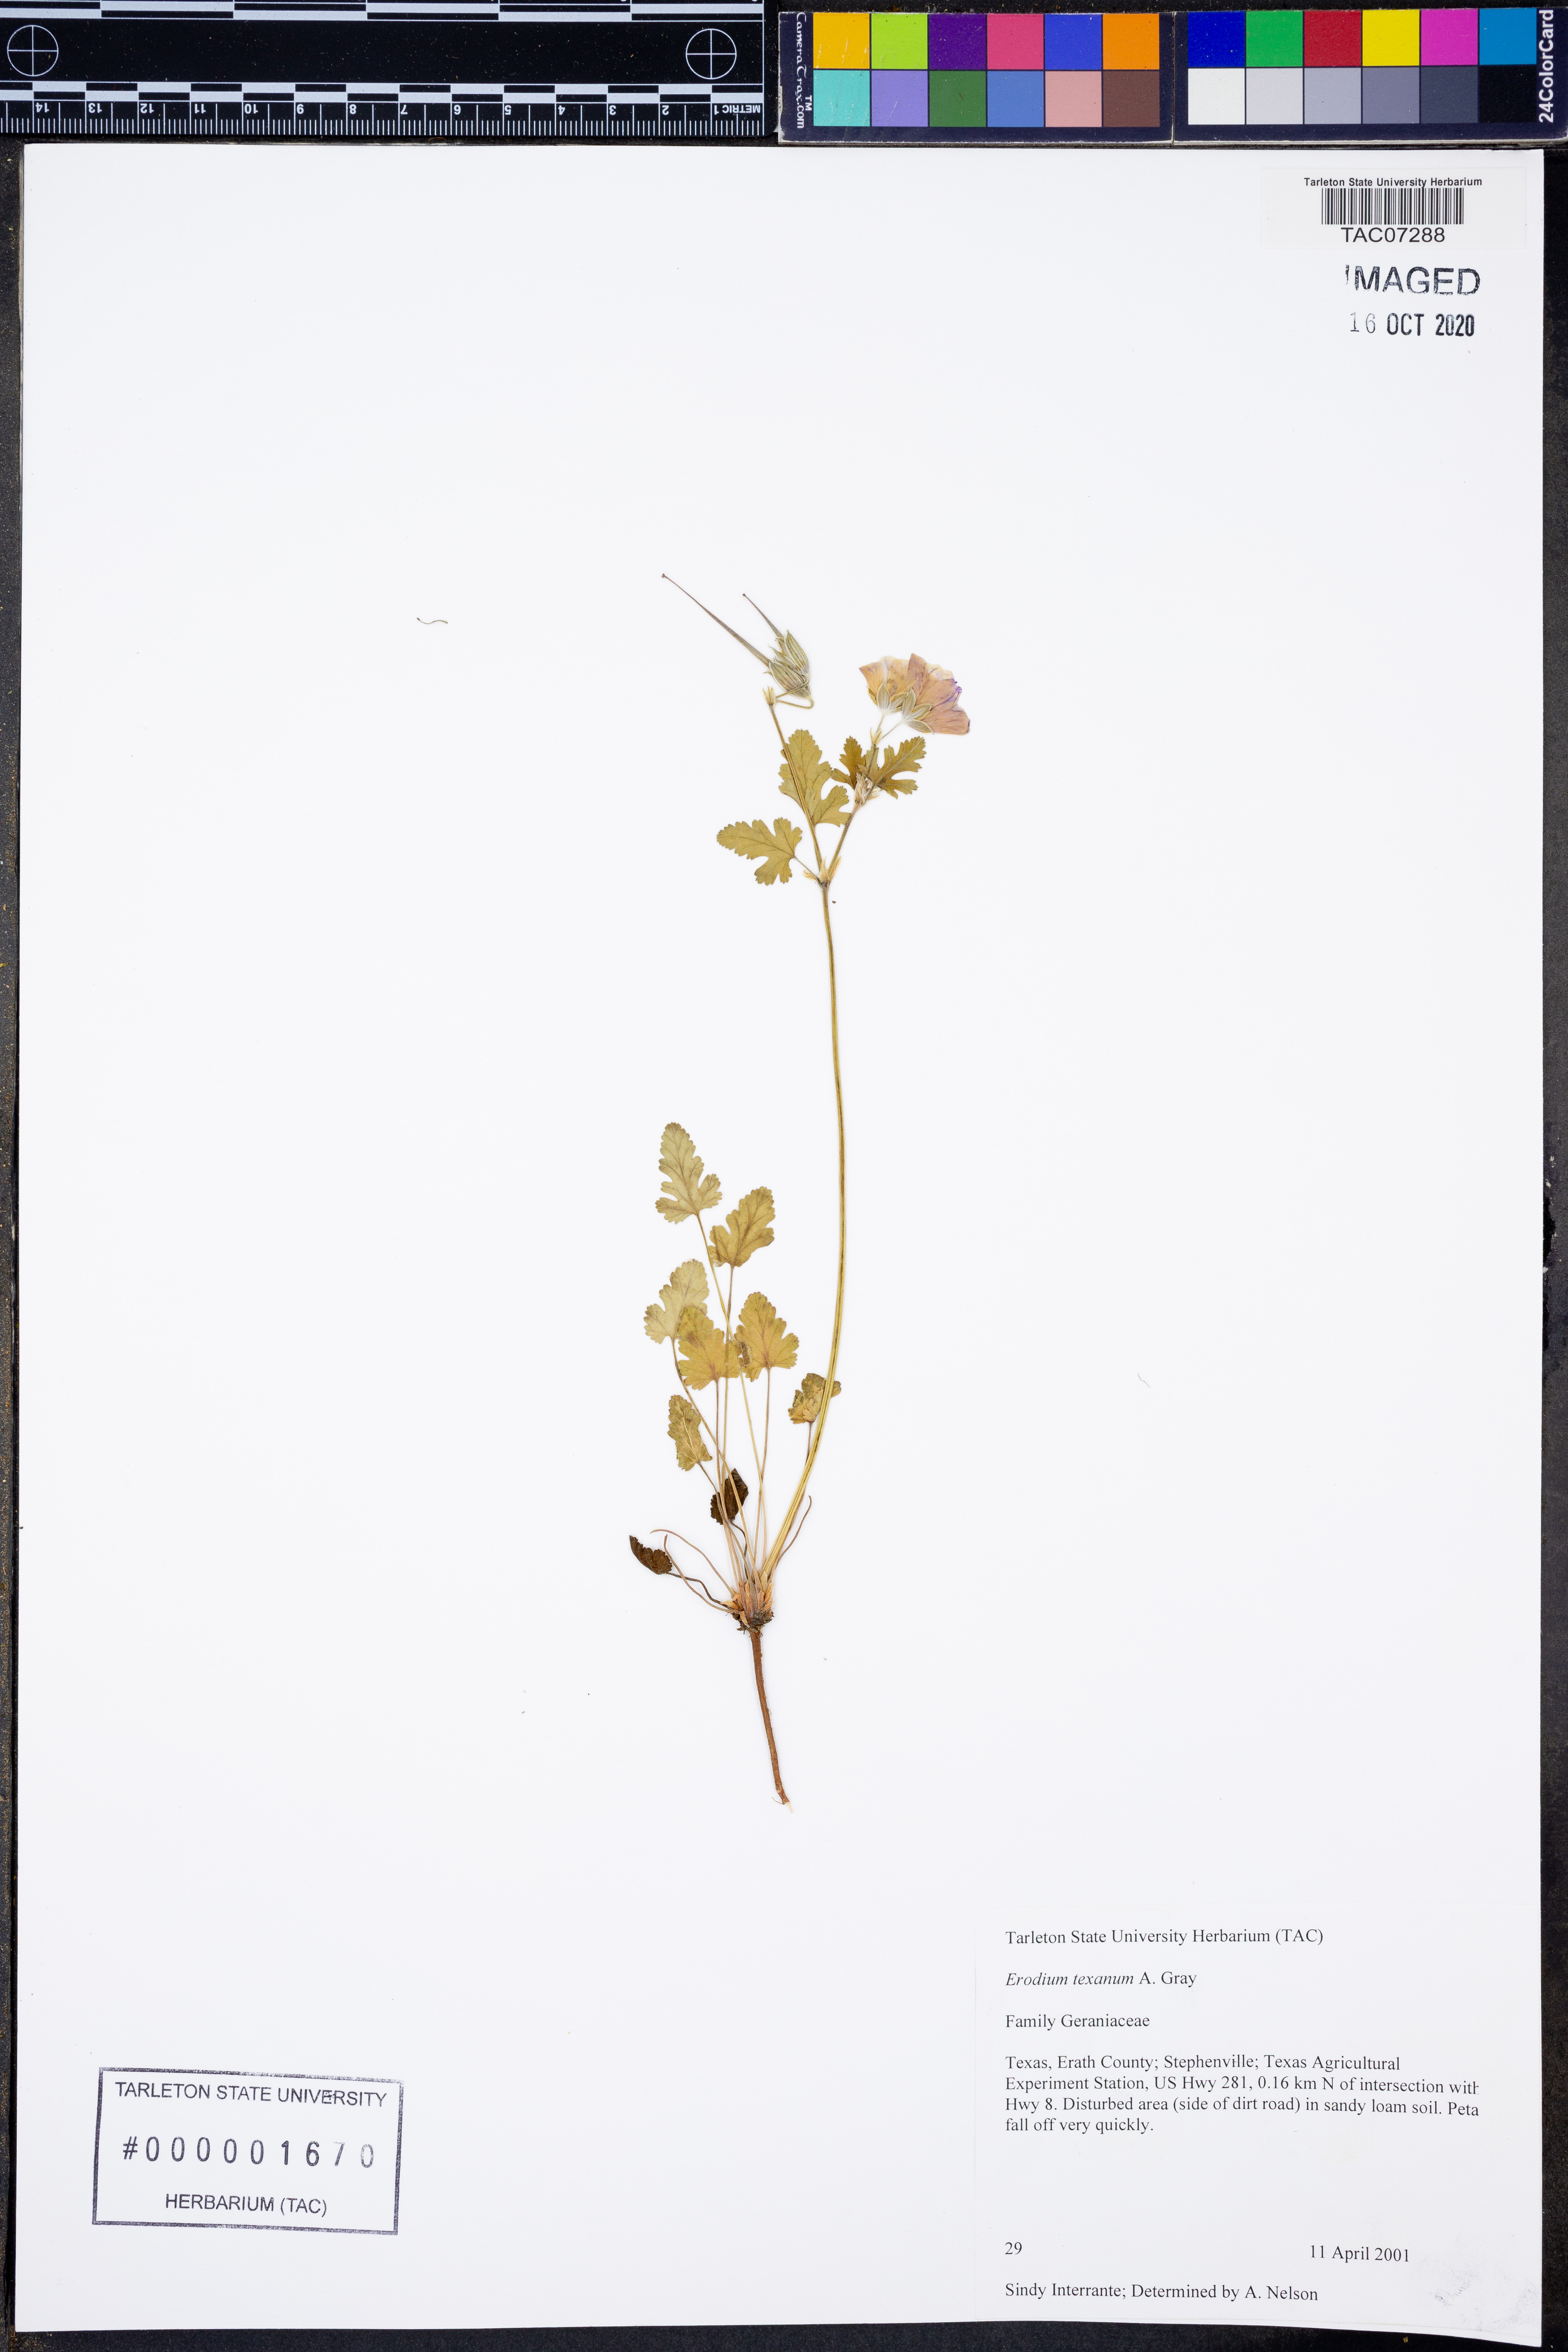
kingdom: Plantae
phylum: Tracheophyta
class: Magnoliopsida
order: Geraniales
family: Geraniaceae
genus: Erodium
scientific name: Erodium texanum
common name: Texas stork's-bill
